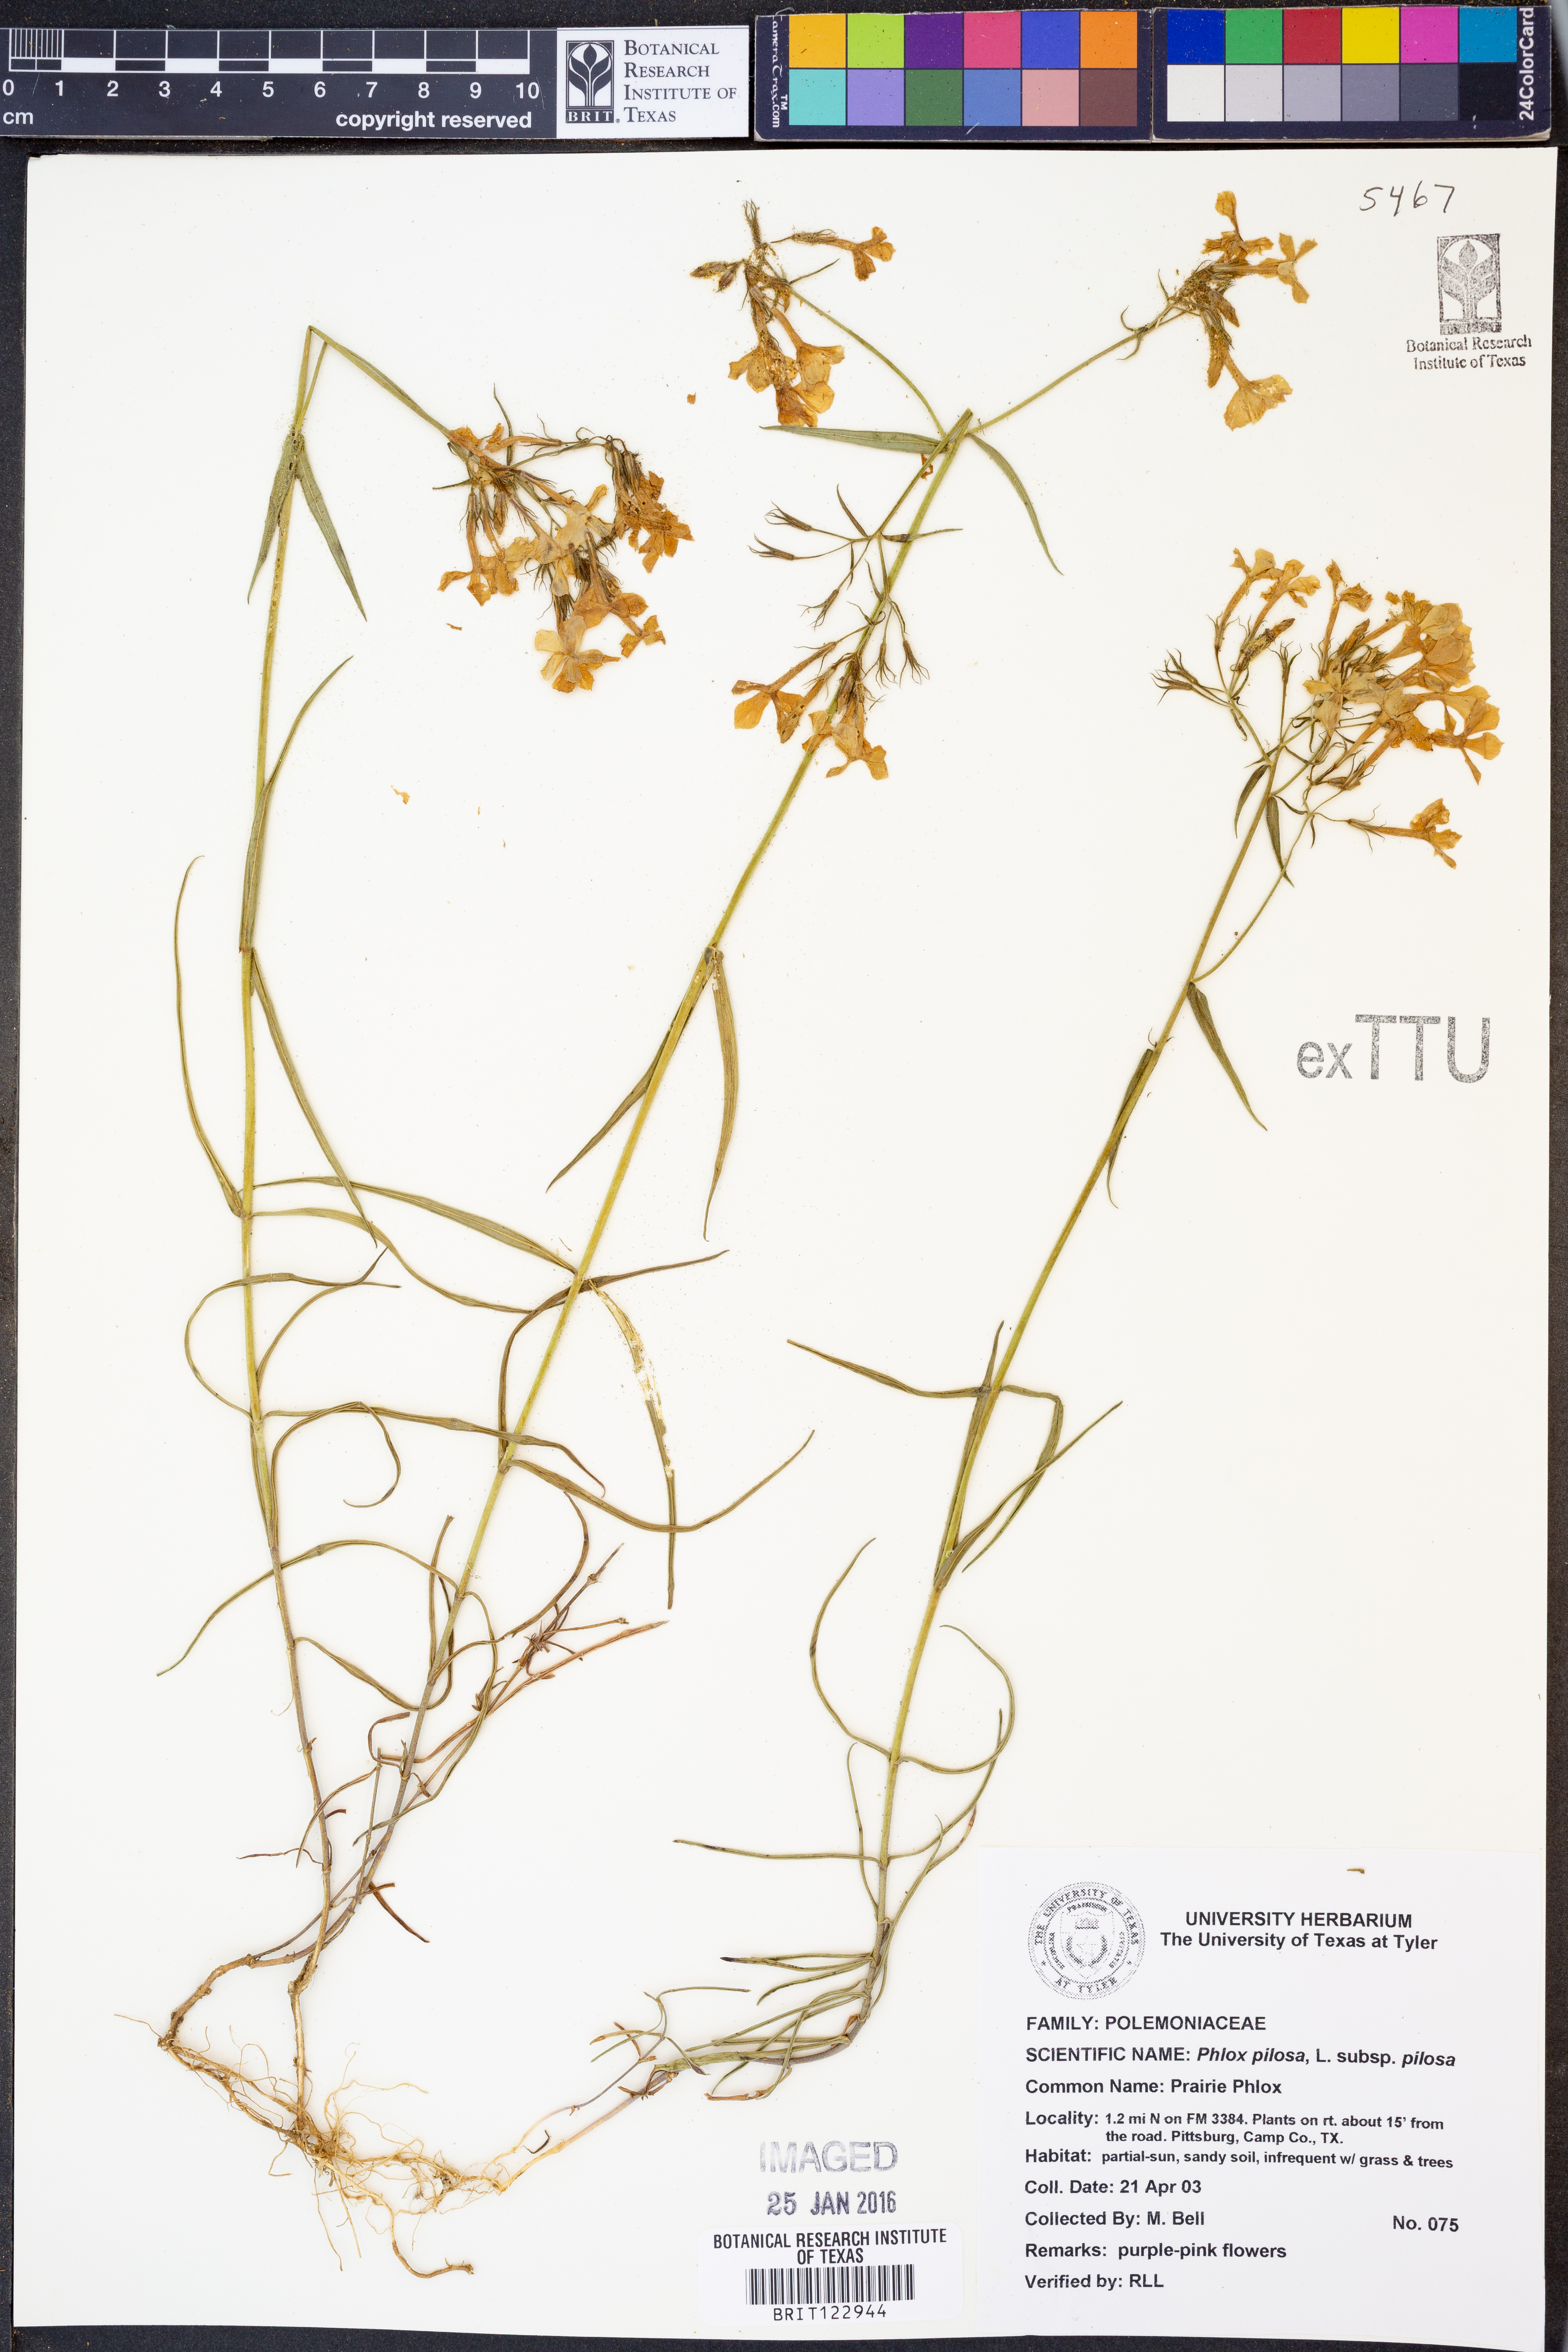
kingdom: Plantae
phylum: Tracheophyta
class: Magnoliopsida
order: Ericales
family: Polemoniaceae
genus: Phlox
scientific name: Phlox pilosa
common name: Prairie phlox
